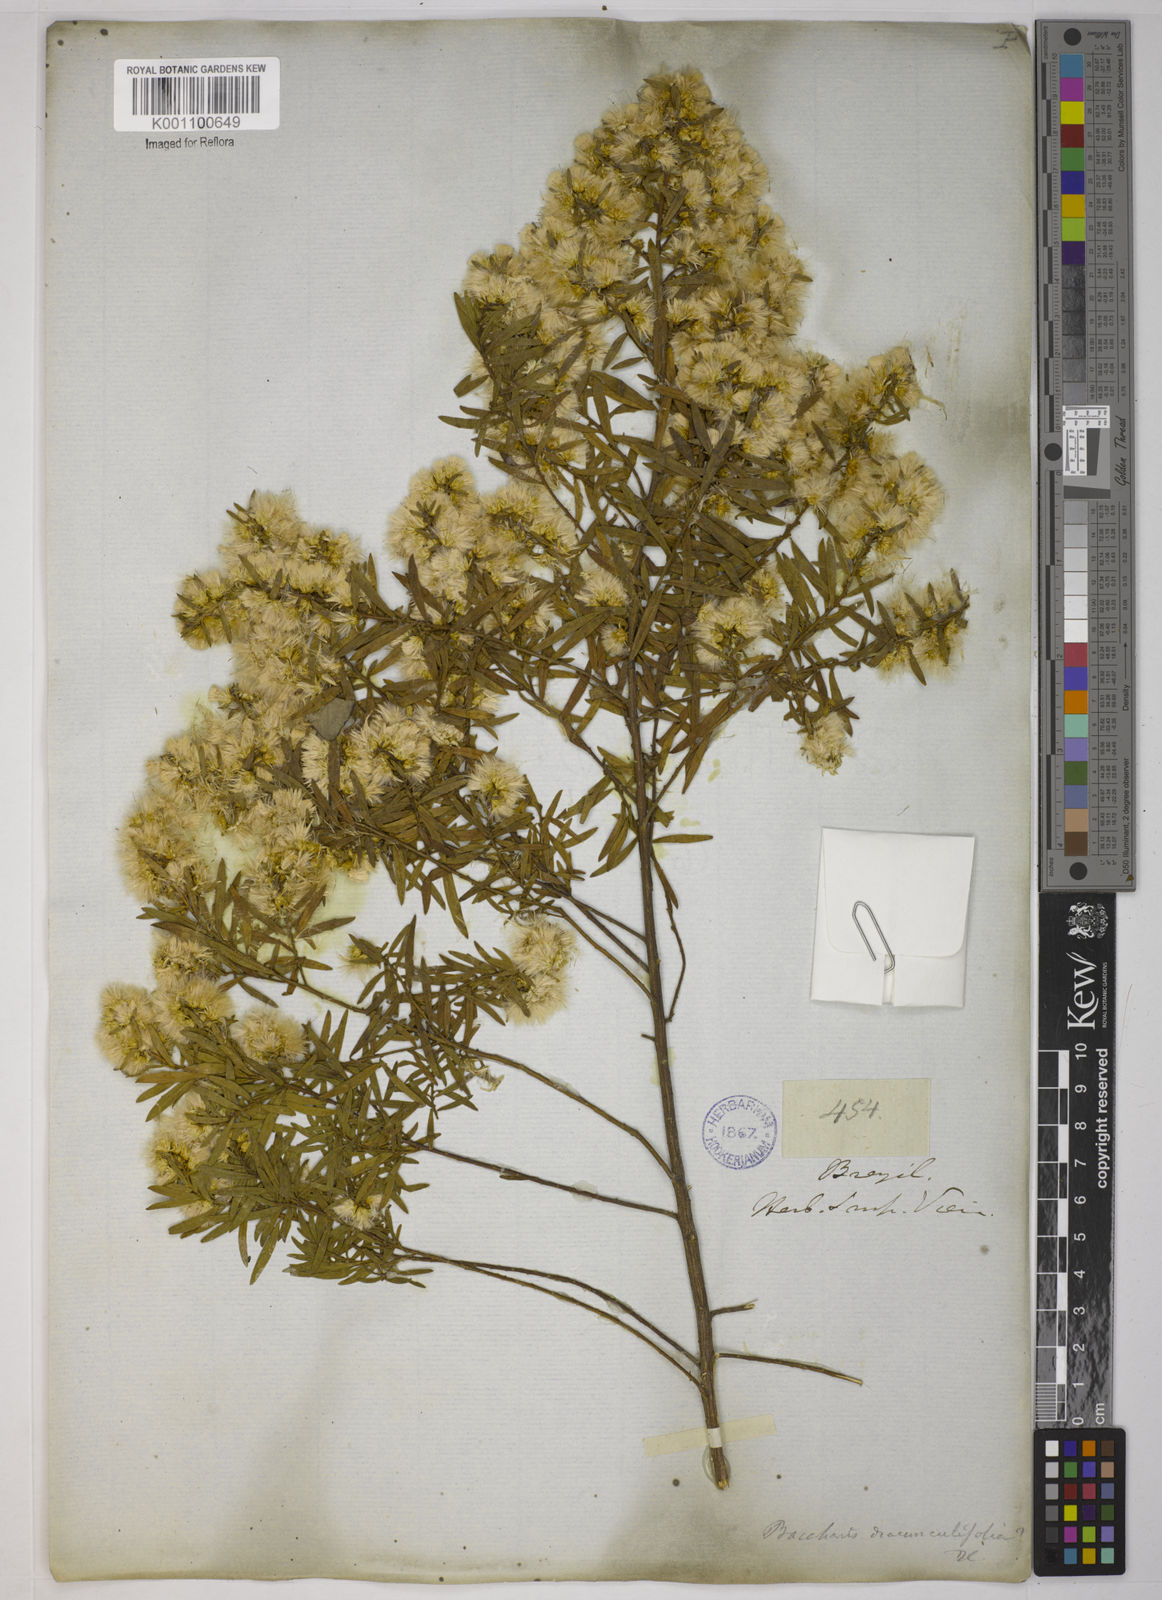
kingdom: Plantae
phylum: Tracheophyta
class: Magnoliopsida
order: Asterales
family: Asteraceae
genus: Baccharis
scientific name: Baccharis dracunculifolia
